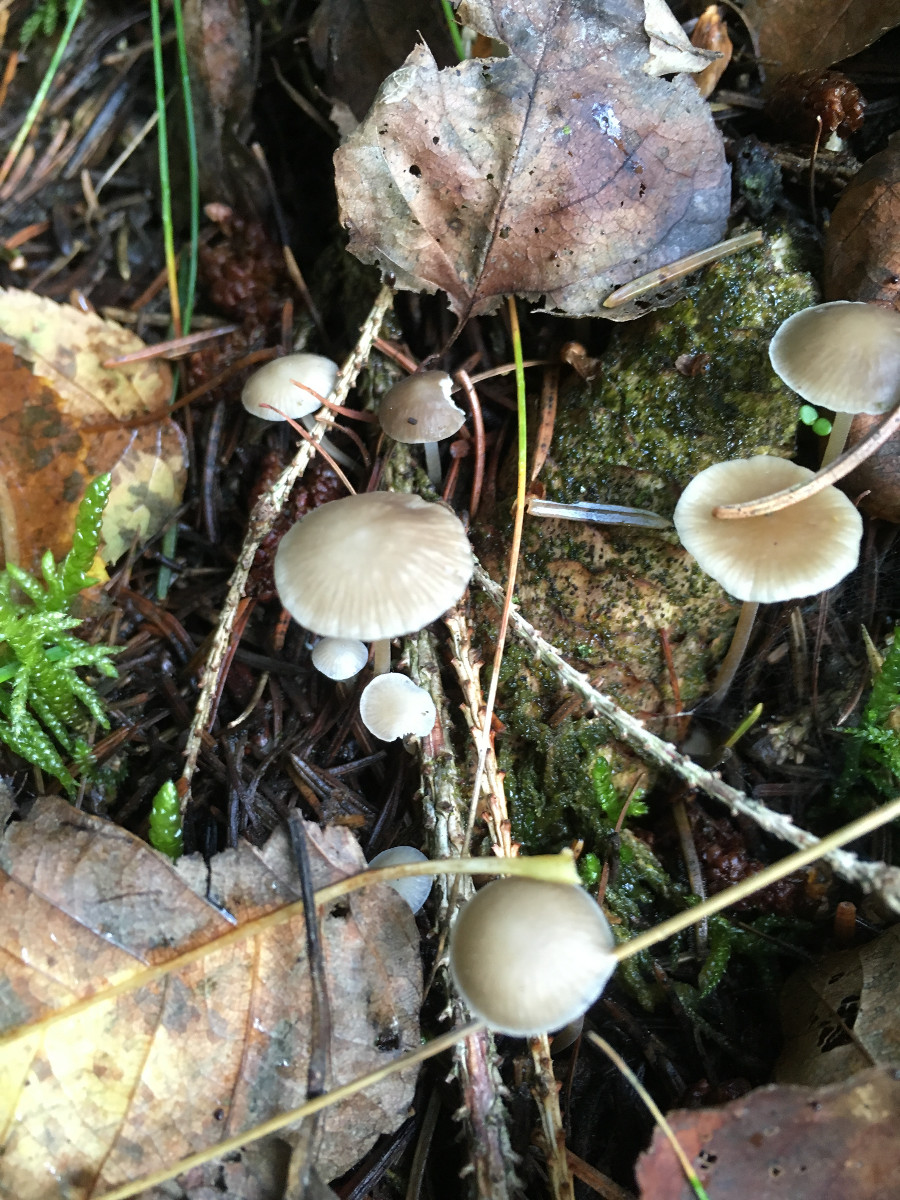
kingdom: Fungi
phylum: Basidiomycota
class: Agaricomycetes
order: Agaricales
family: Physalacriaceae
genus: Strobilurus
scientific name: Strobilurus esculentus
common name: gran-koglehat
